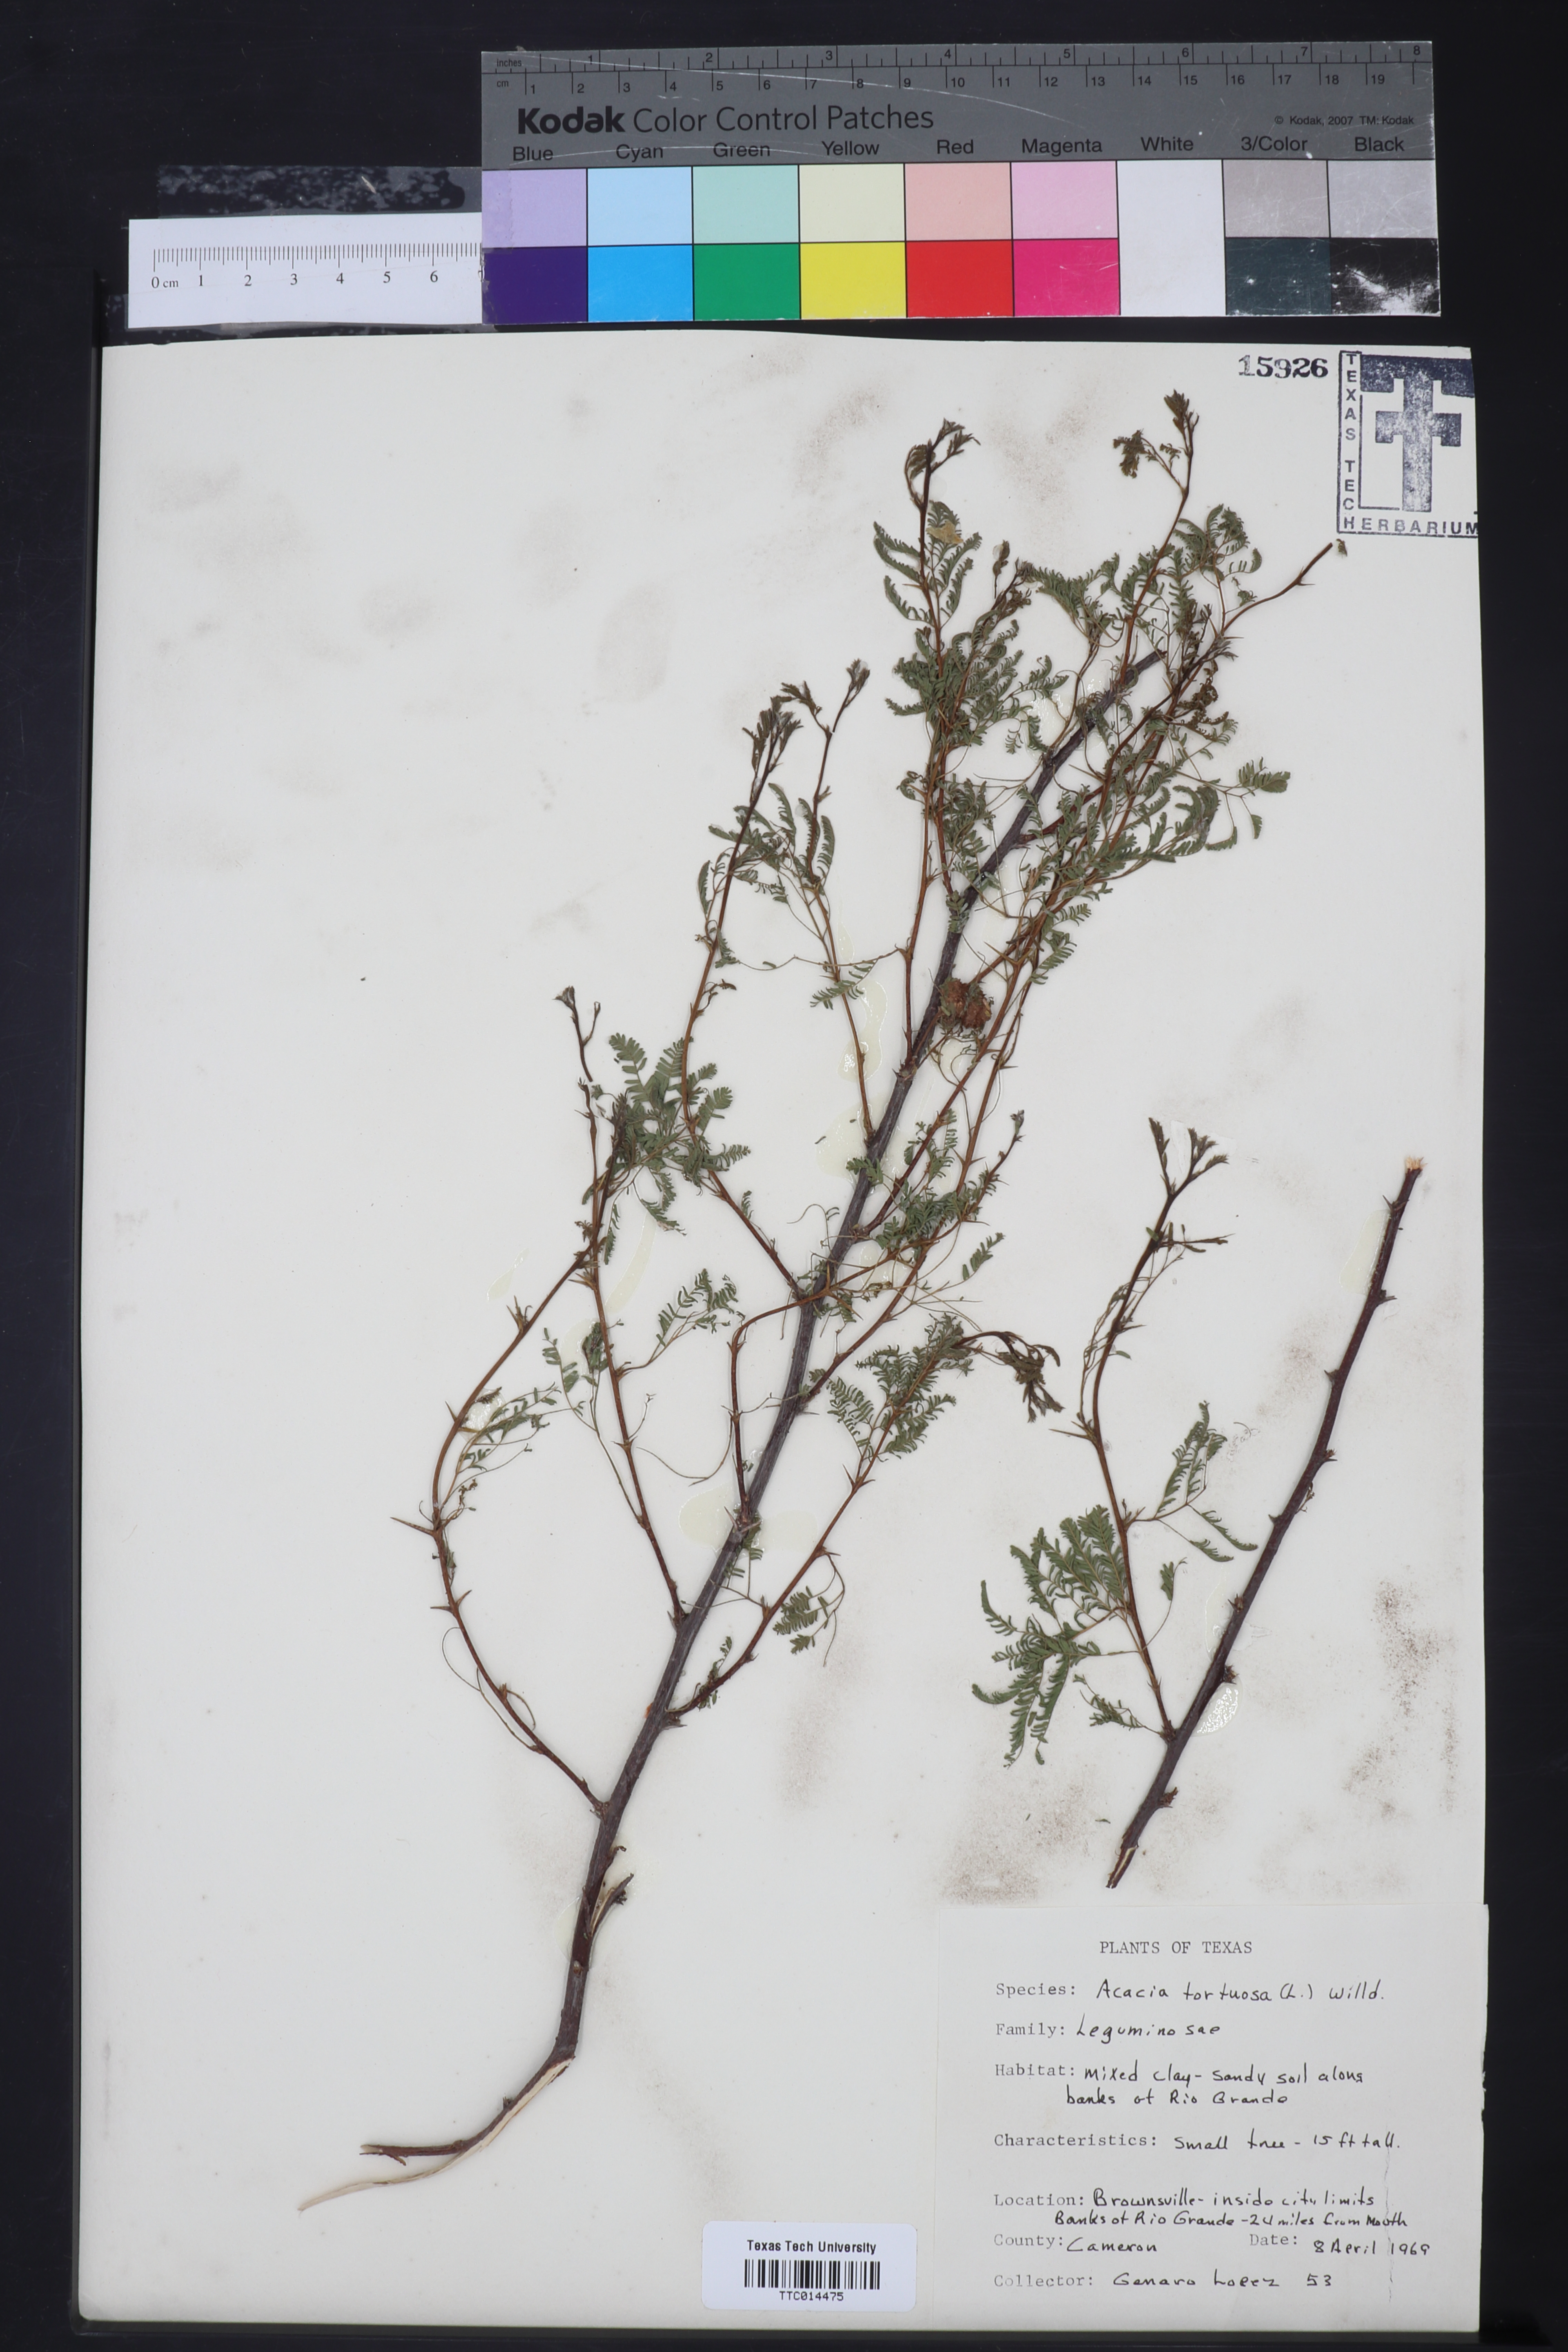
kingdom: Plantae
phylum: Tracheophyta
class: Magnoliopsida
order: Fabales
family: Fabaceae
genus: Vachellia
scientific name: Vachellia tortuosa
